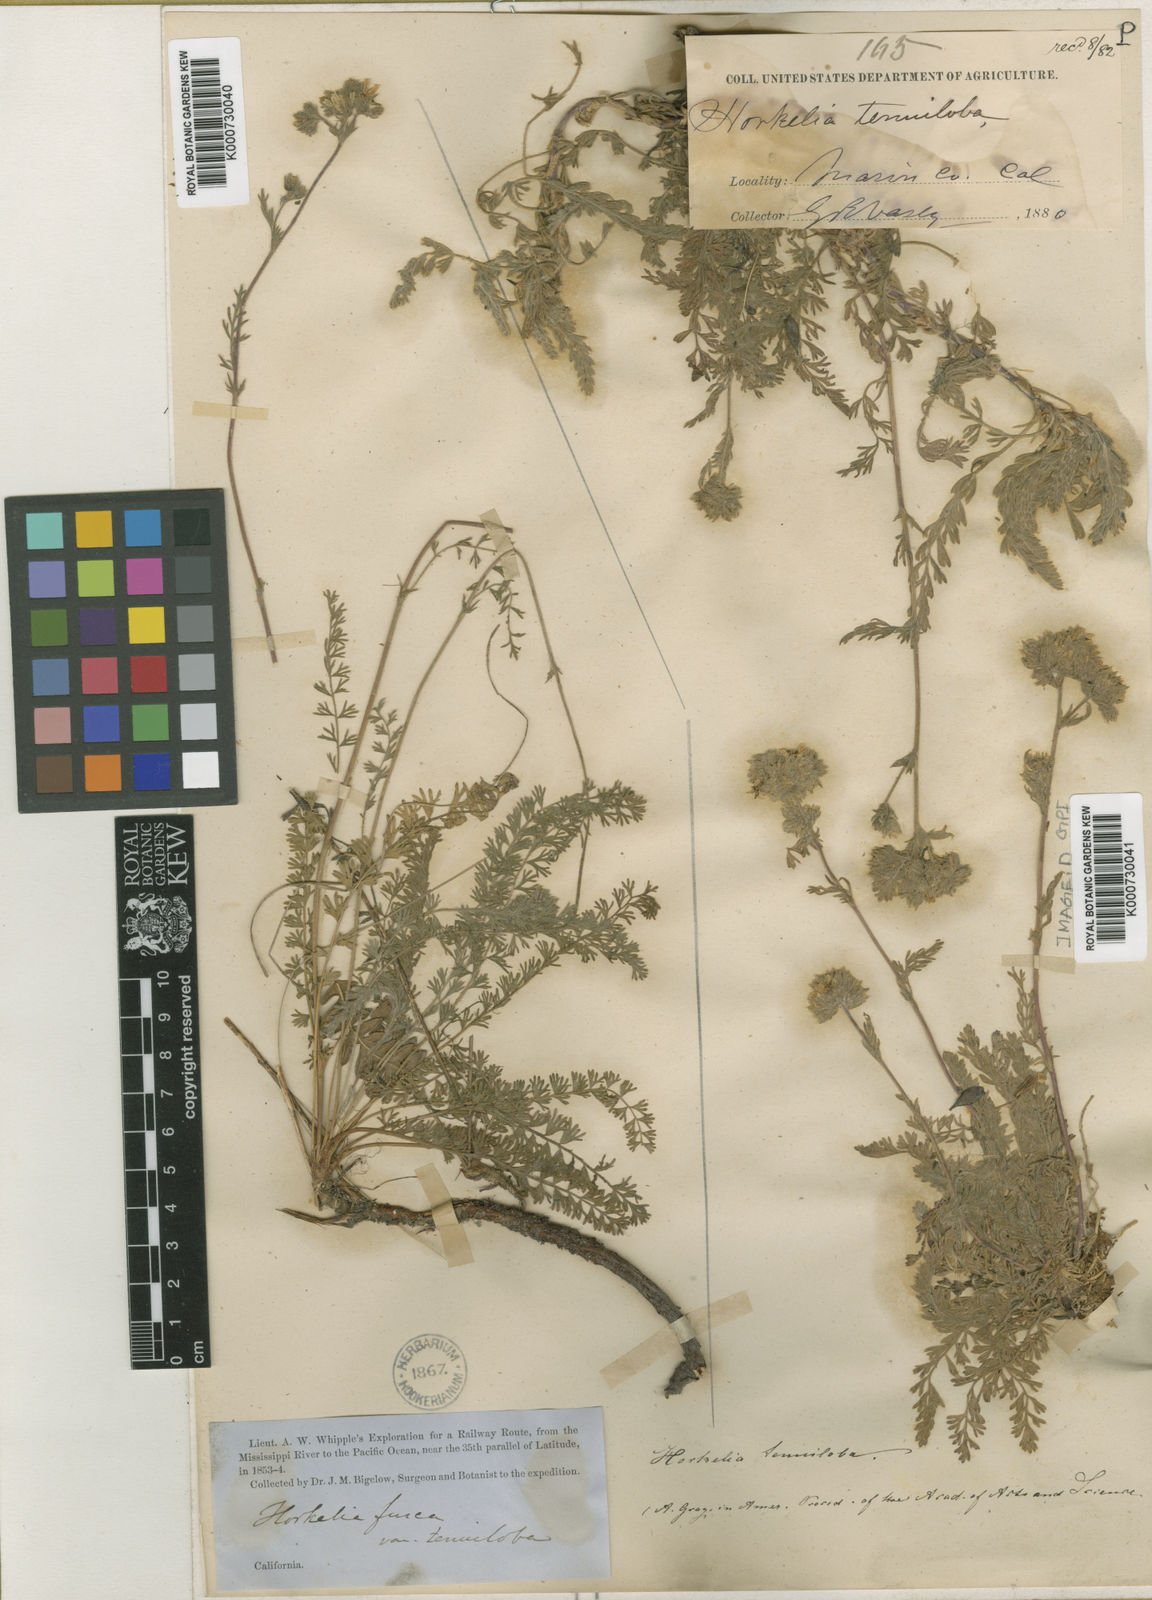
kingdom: Plantae
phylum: Tracheophyta
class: Magnoliopsida
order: Rosales
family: Rosaceae
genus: Potentilla
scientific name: Potentilla micheneri
